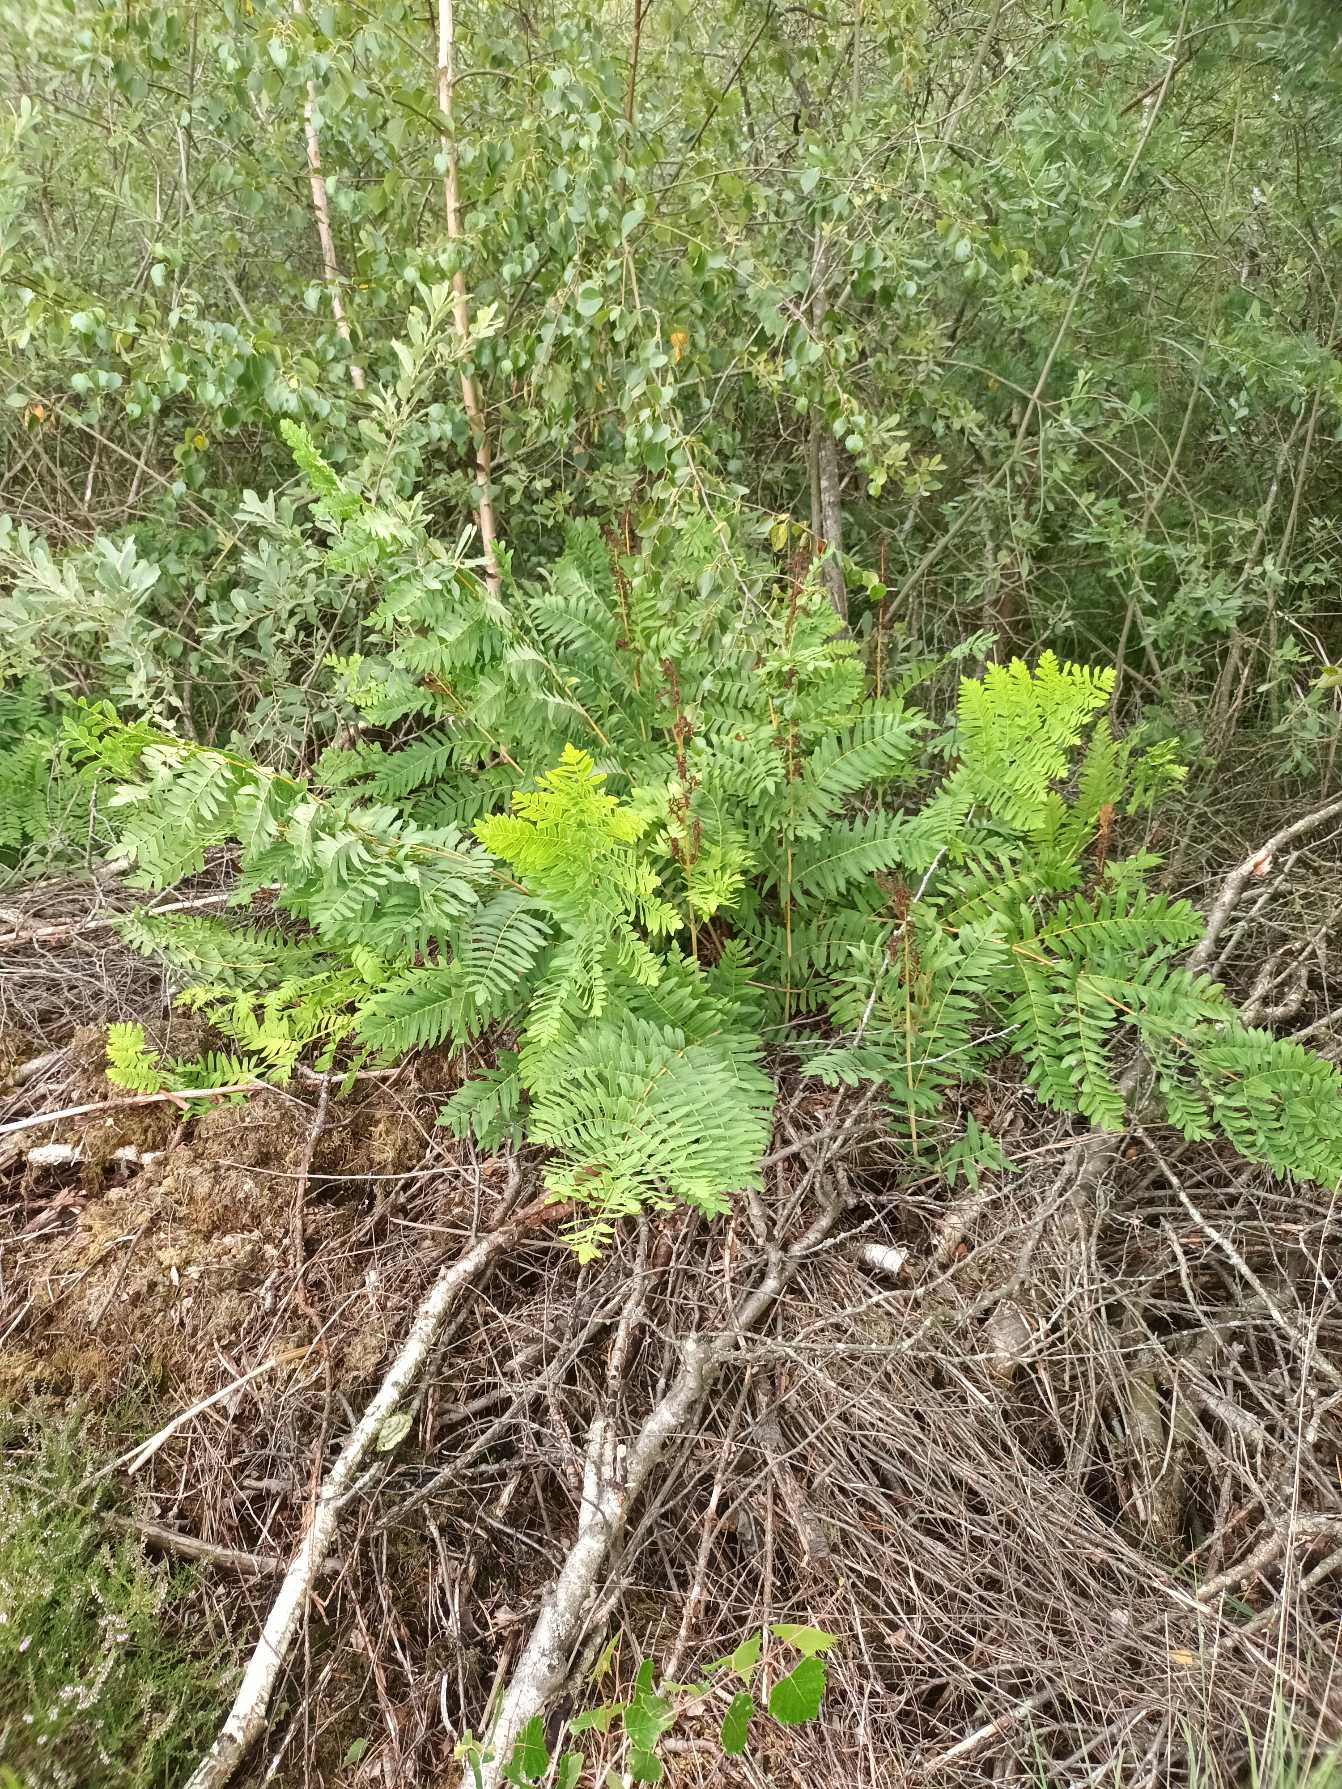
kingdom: Plantae
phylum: Tracheophyta
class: Polypodiopsida
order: Osmundales
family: Osmundaceae
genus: Osmunda
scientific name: Osmunda regalis
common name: Kongebregne
